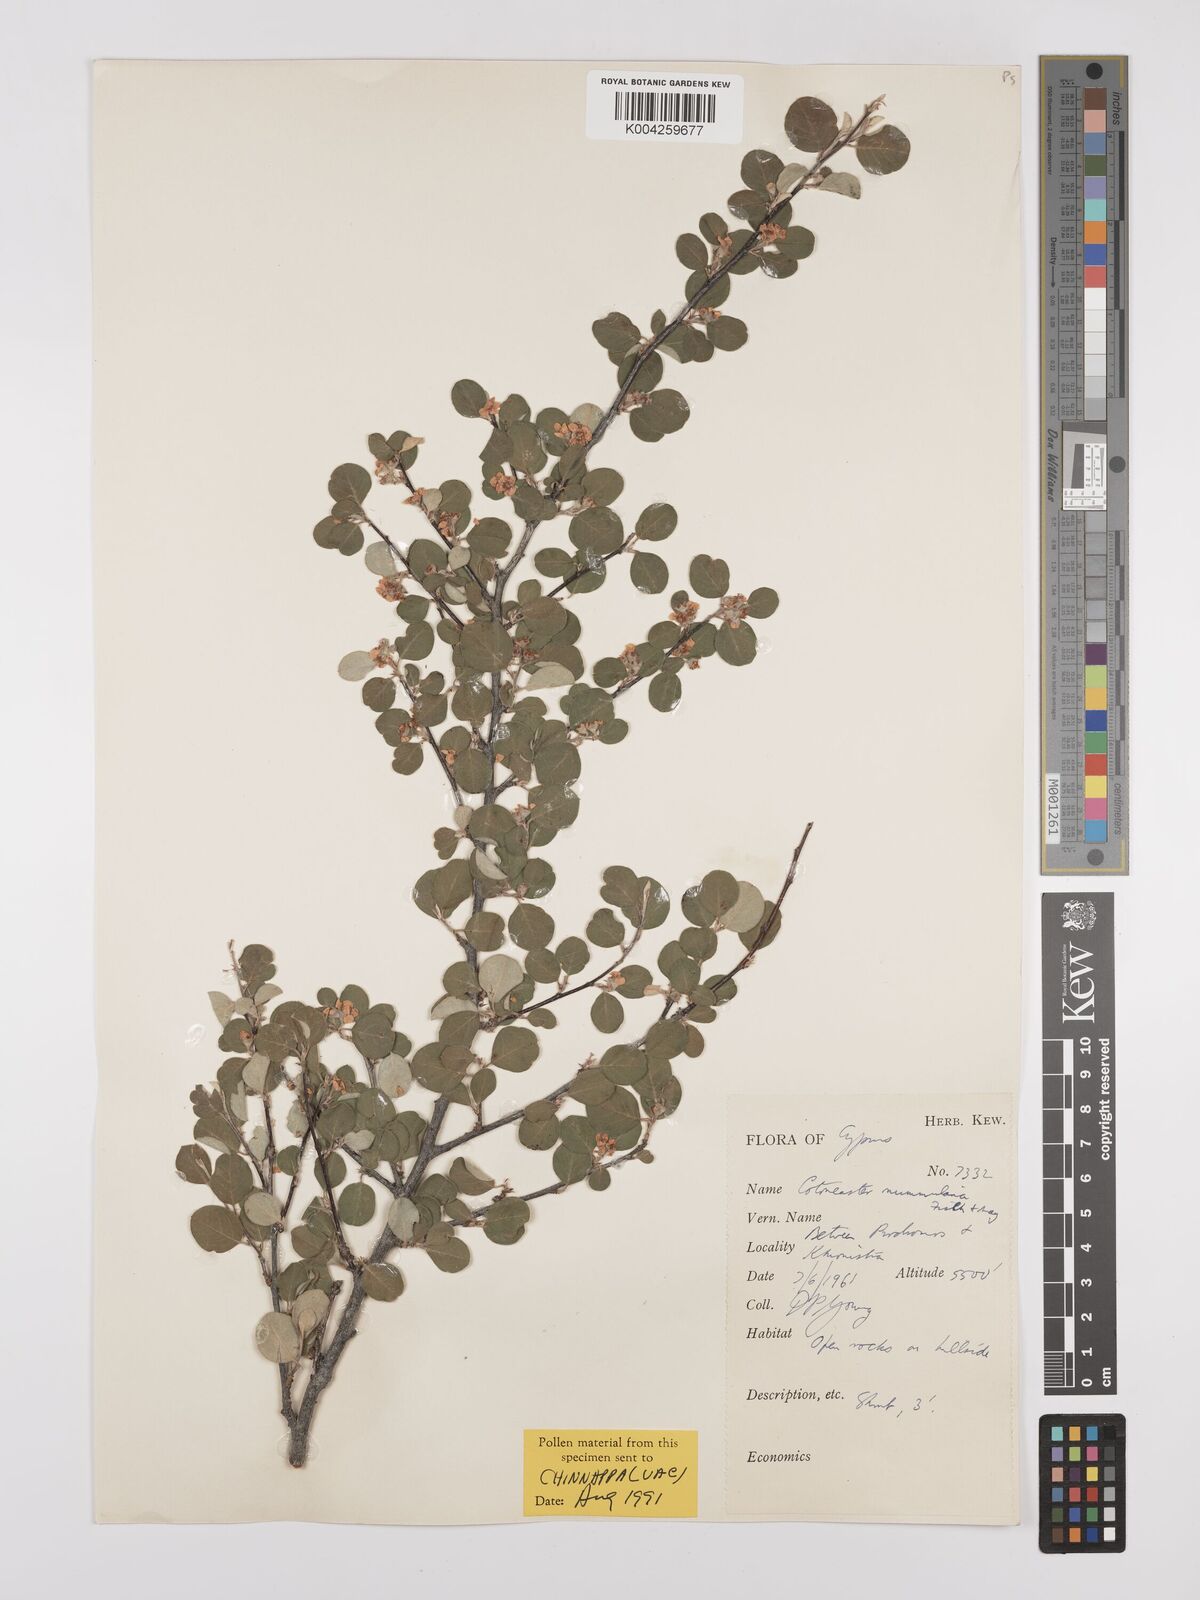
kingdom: Plantae
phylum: Tracheophyta
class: Magnoliopsida
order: Rosales
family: Rosaceae
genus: Cotoneaster
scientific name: Cotoneaster nummularius
